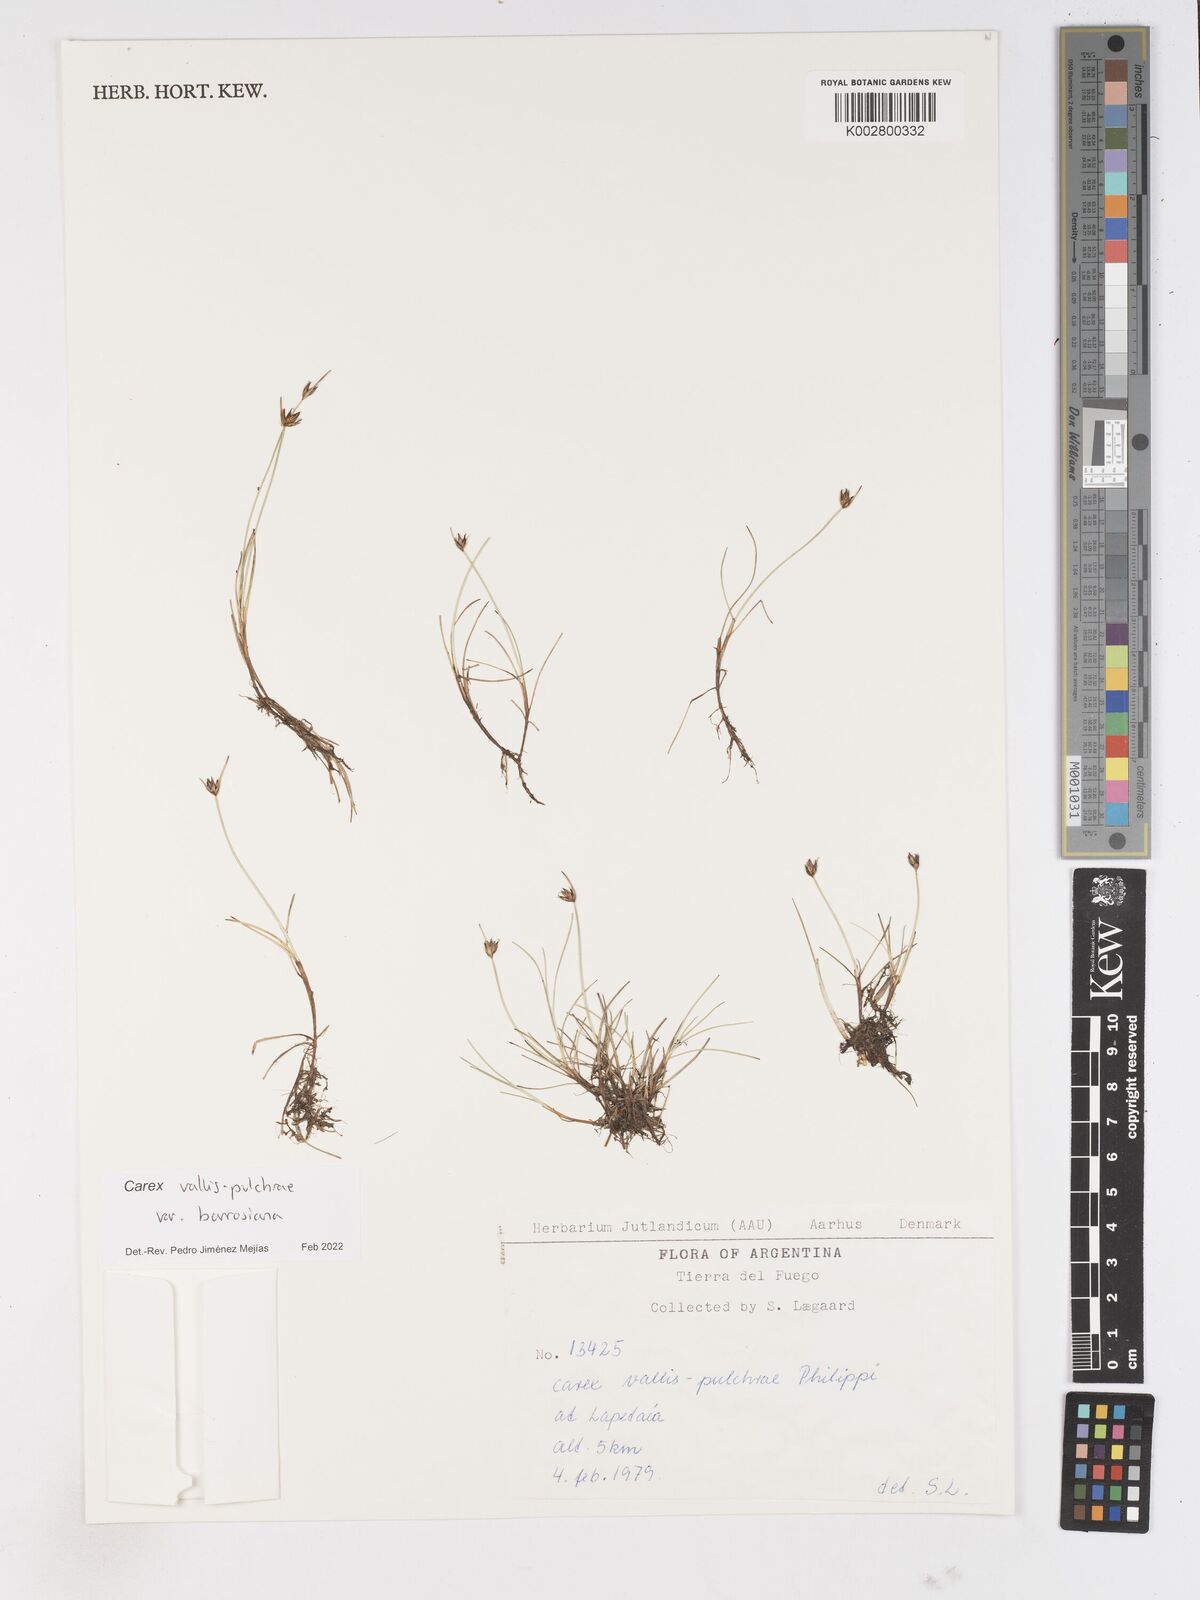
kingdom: Plantae
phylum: Tracheophyta
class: Liliopsida
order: Poales
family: Cyperaceae
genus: Carex
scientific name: Carex vallis-pulchrae
